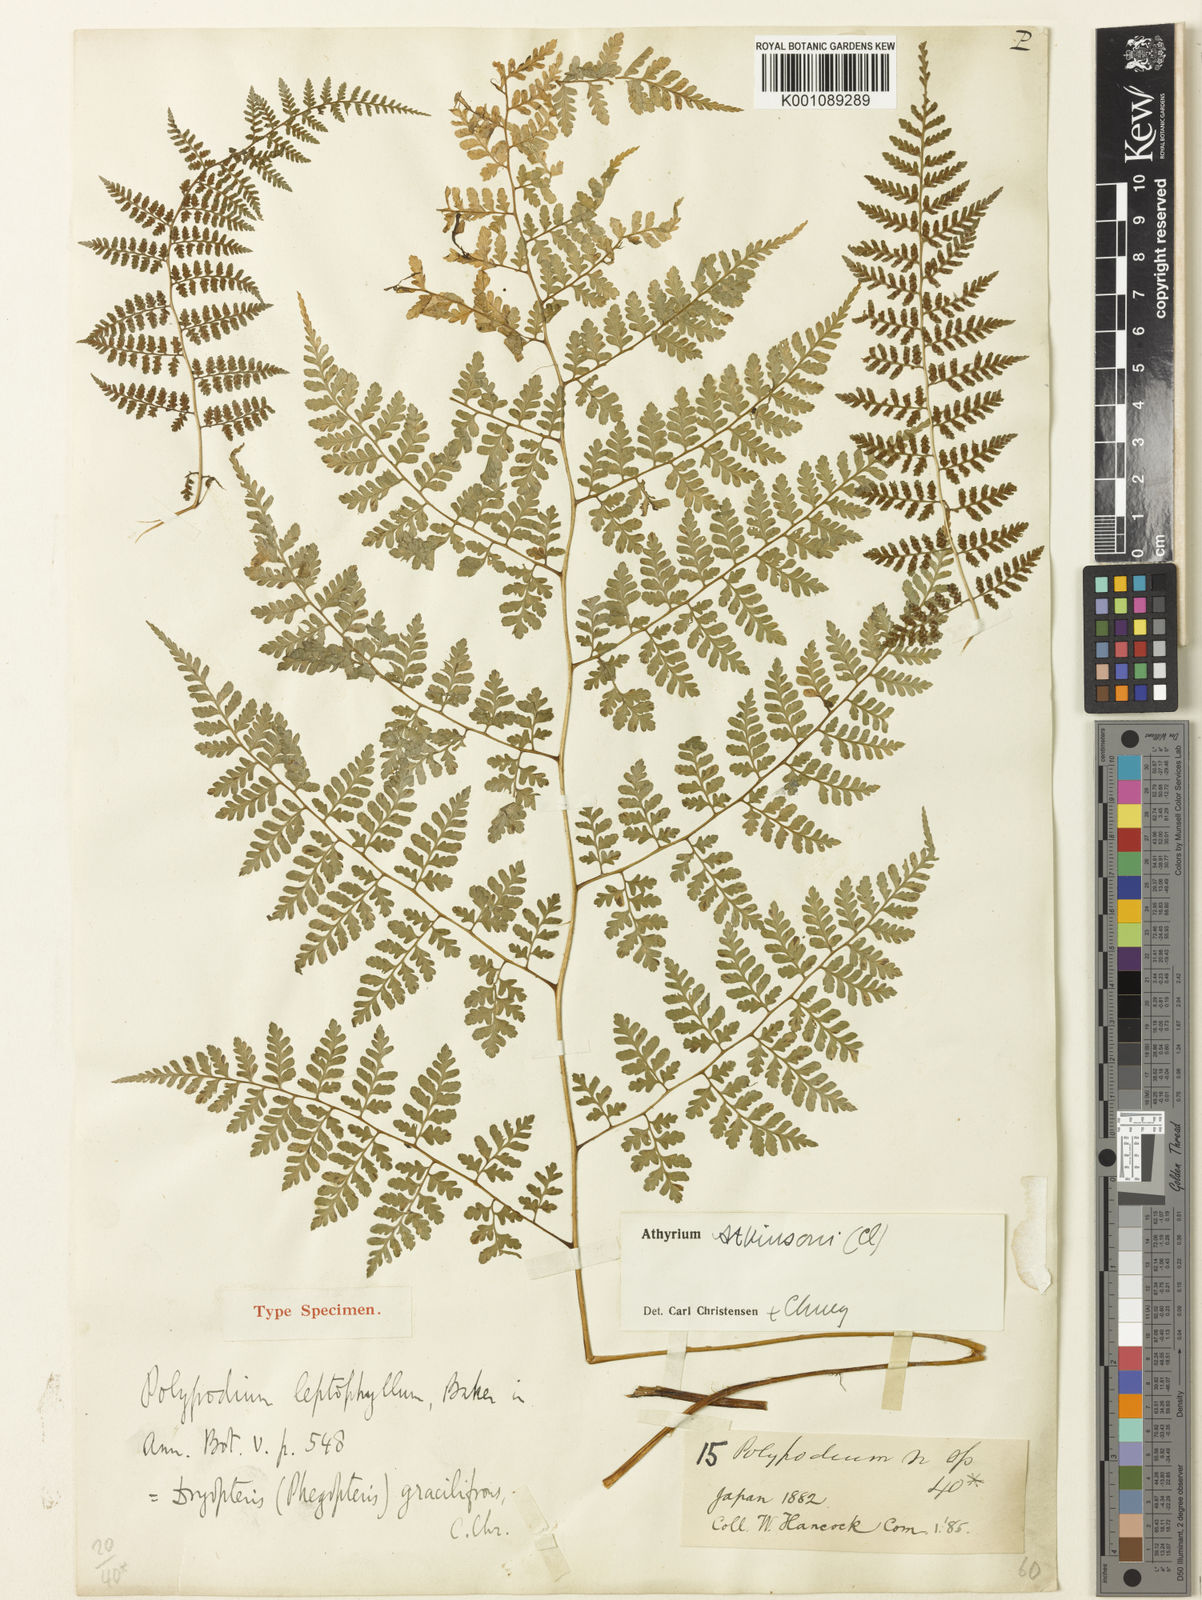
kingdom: Plantae
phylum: Tracheophyta
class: Polypodiopsida
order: Polypodiales
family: Athyriaceae
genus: Athyrium
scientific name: Athyrium atkinsonii
